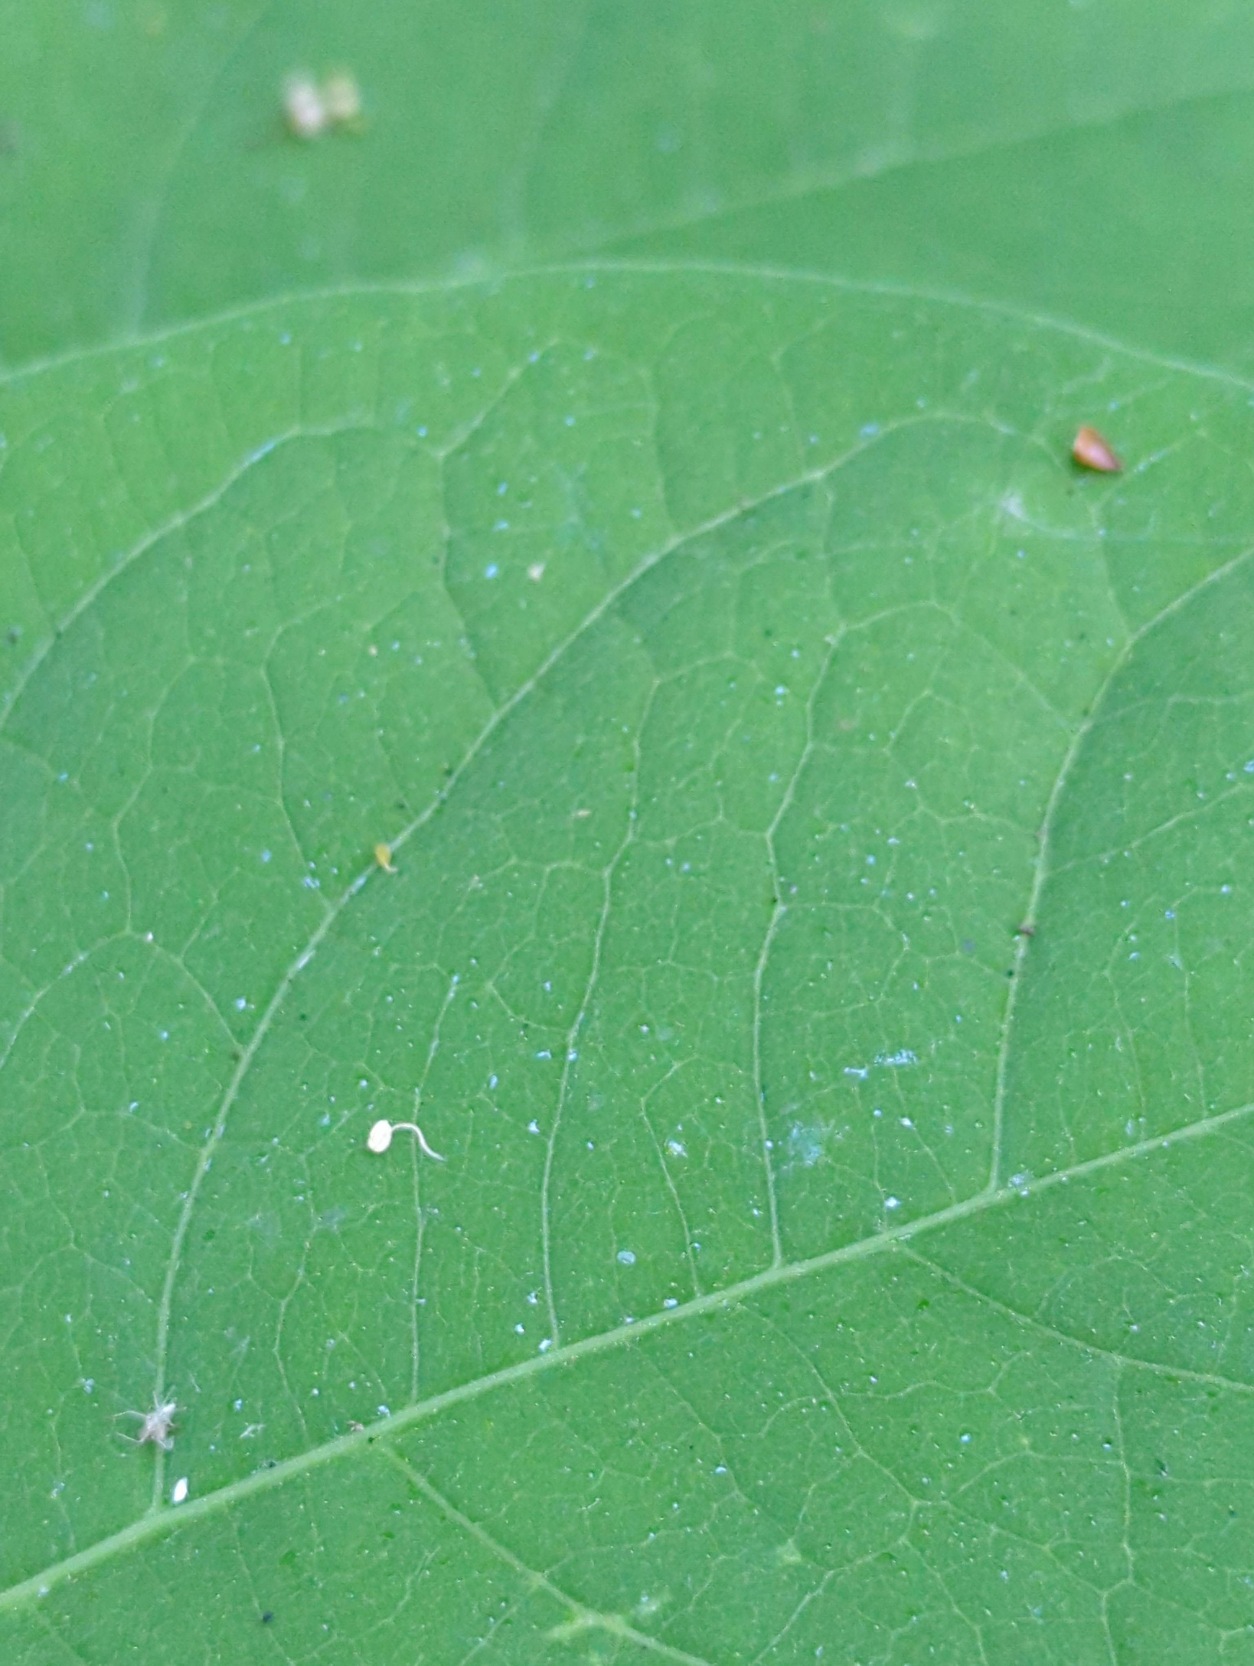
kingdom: Plantae
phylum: Tracheophyta
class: Magnoliopsida
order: Caryophyllales
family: Polygonaceae
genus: Reynoutria
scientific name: Reynoutria japonica
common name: Japan-pileurt
